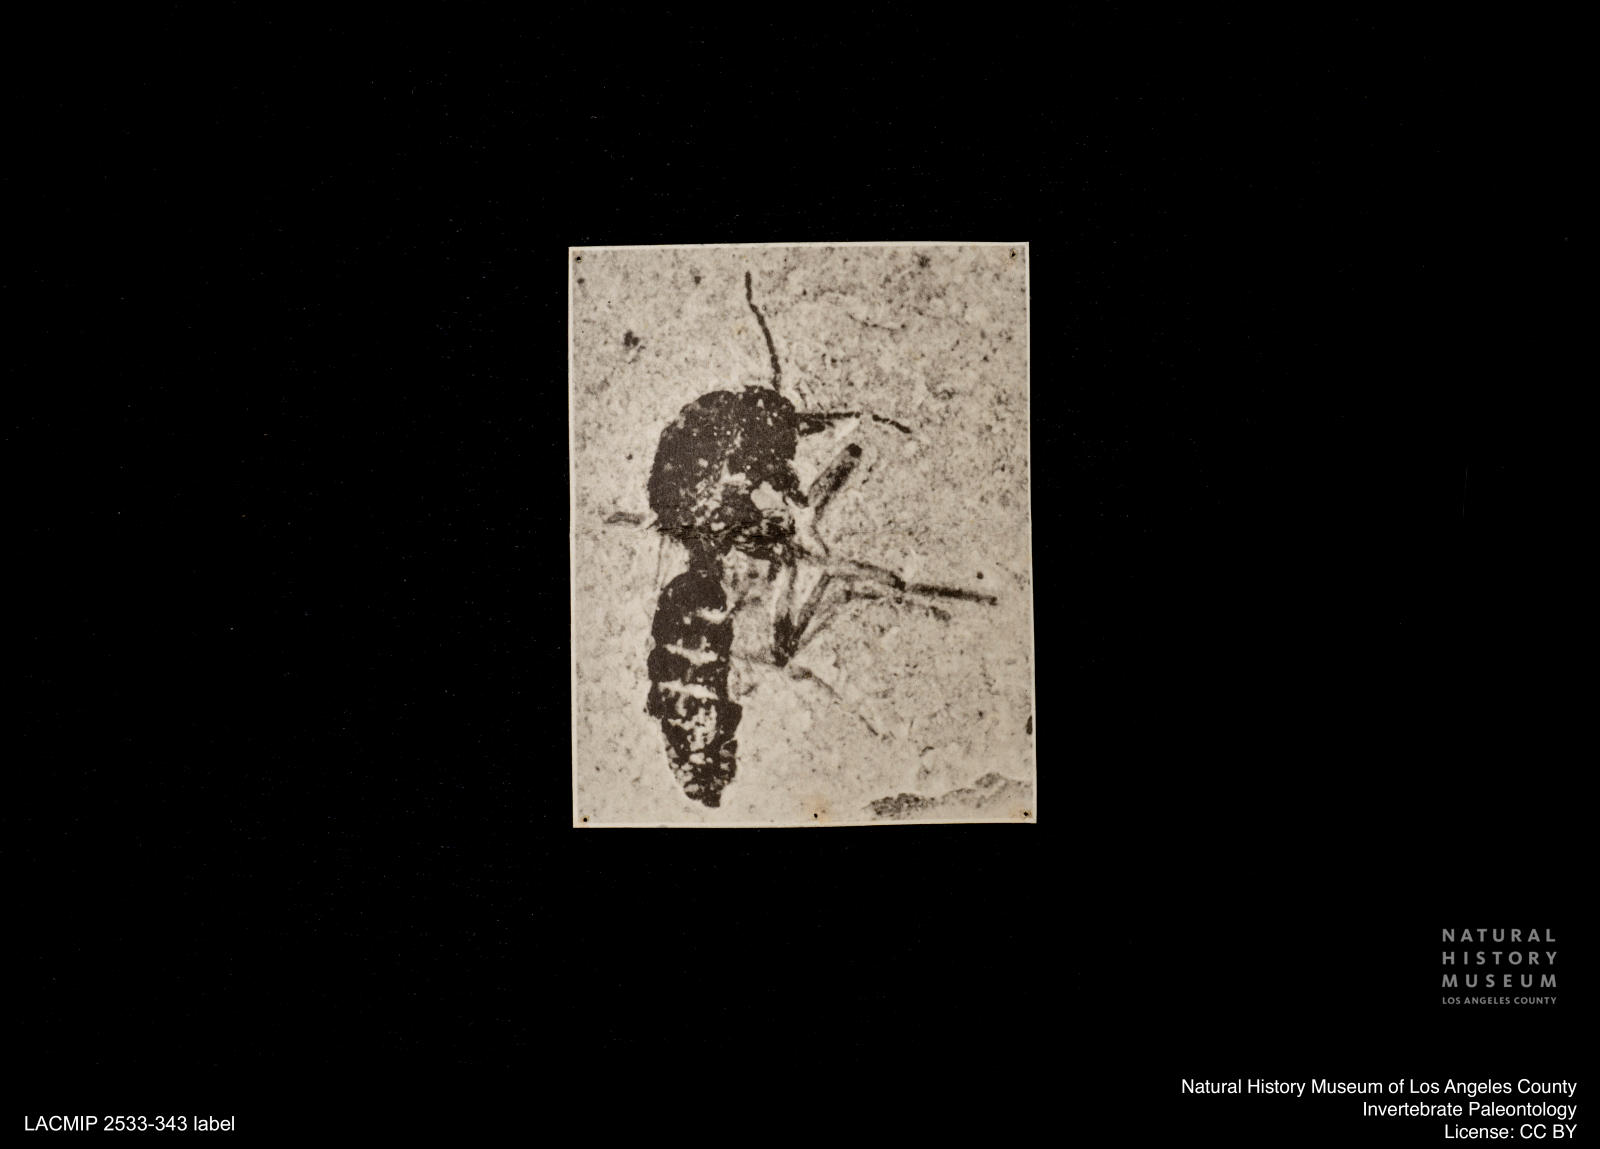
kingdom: Animalia
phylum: Arthropoda
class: Insecta
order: Diptera
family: Ceratopogonidae
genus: Culicoides
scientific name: Culicoides atratus
